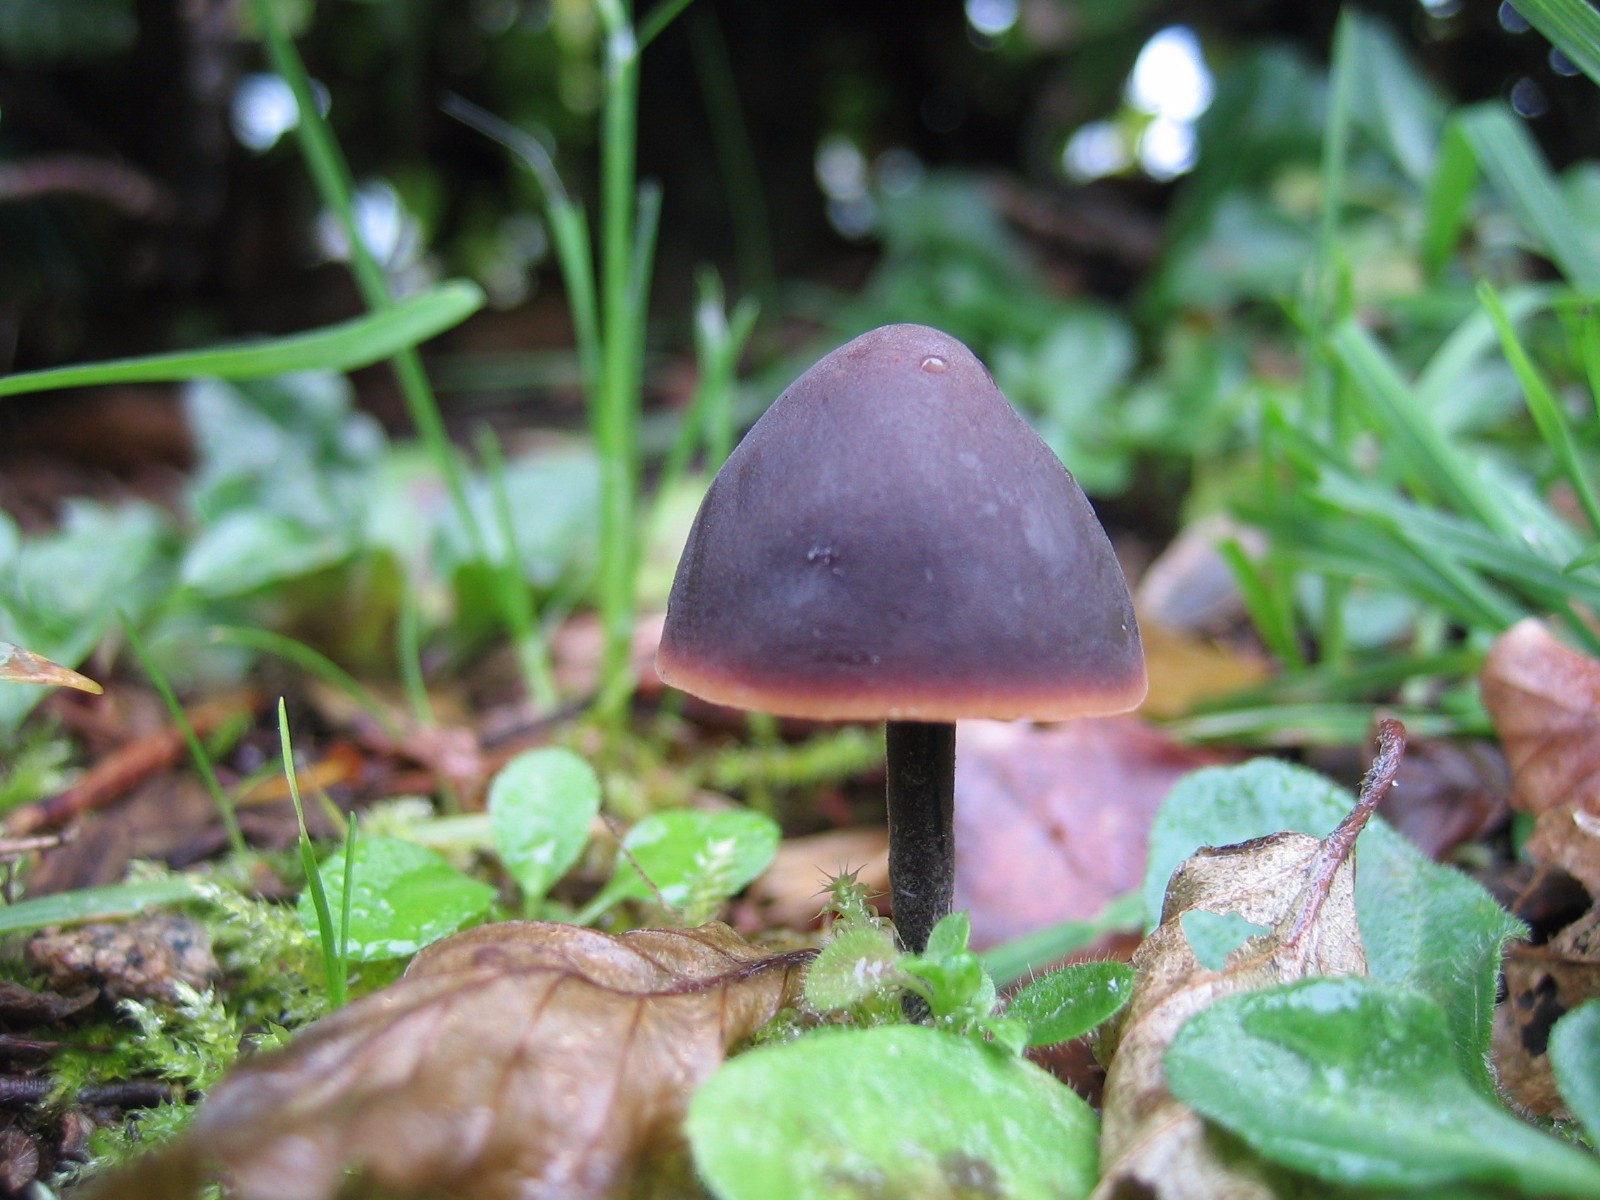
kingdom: Fungi
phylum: Basidiomycota
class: Agaricomycetes
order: Agaricales
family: Macrocystidiaceae
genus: Macrocystidia
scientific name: Macrocystidia cucumis
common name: agurkehat
